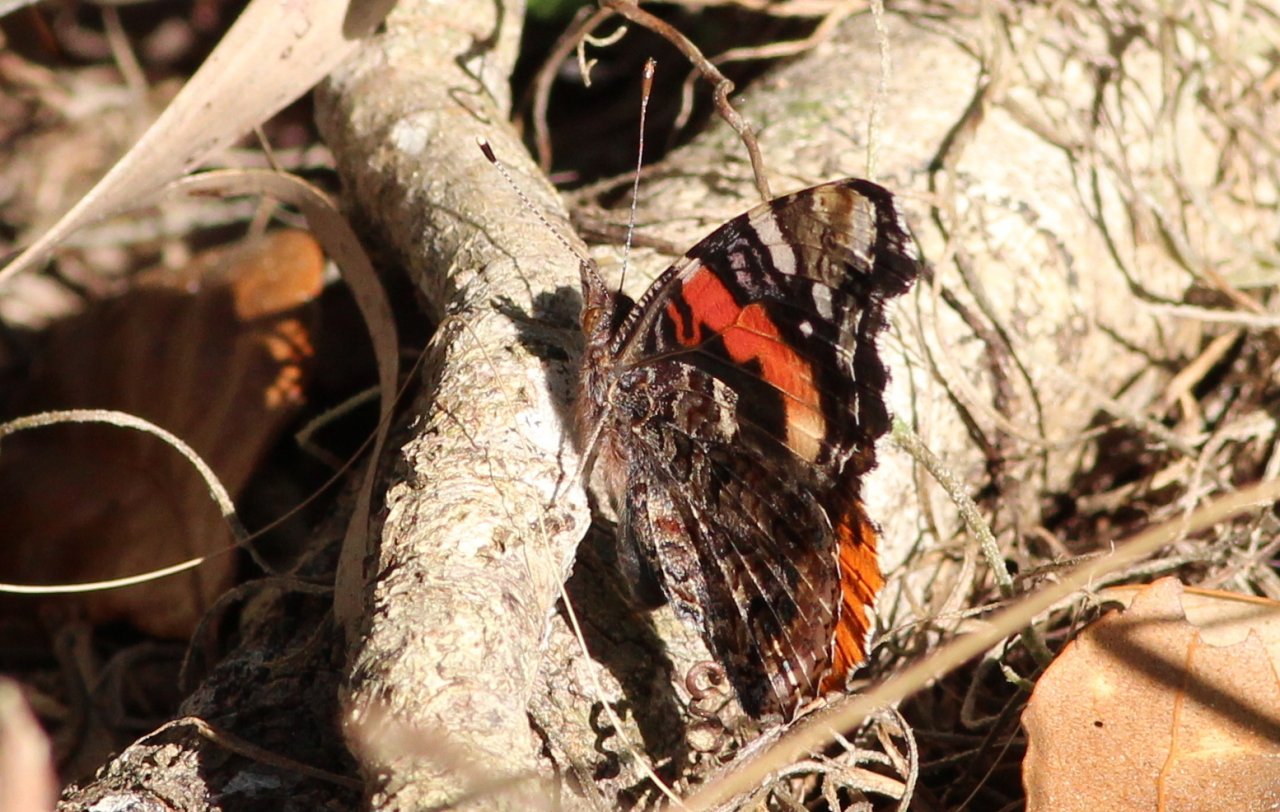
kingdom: Animalia
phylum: Arthropoda
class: Insecta
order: Lepidoptera
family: Nymphalidae
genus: Vanessa
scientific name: Vanessa atalanta
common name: Red Admiral
